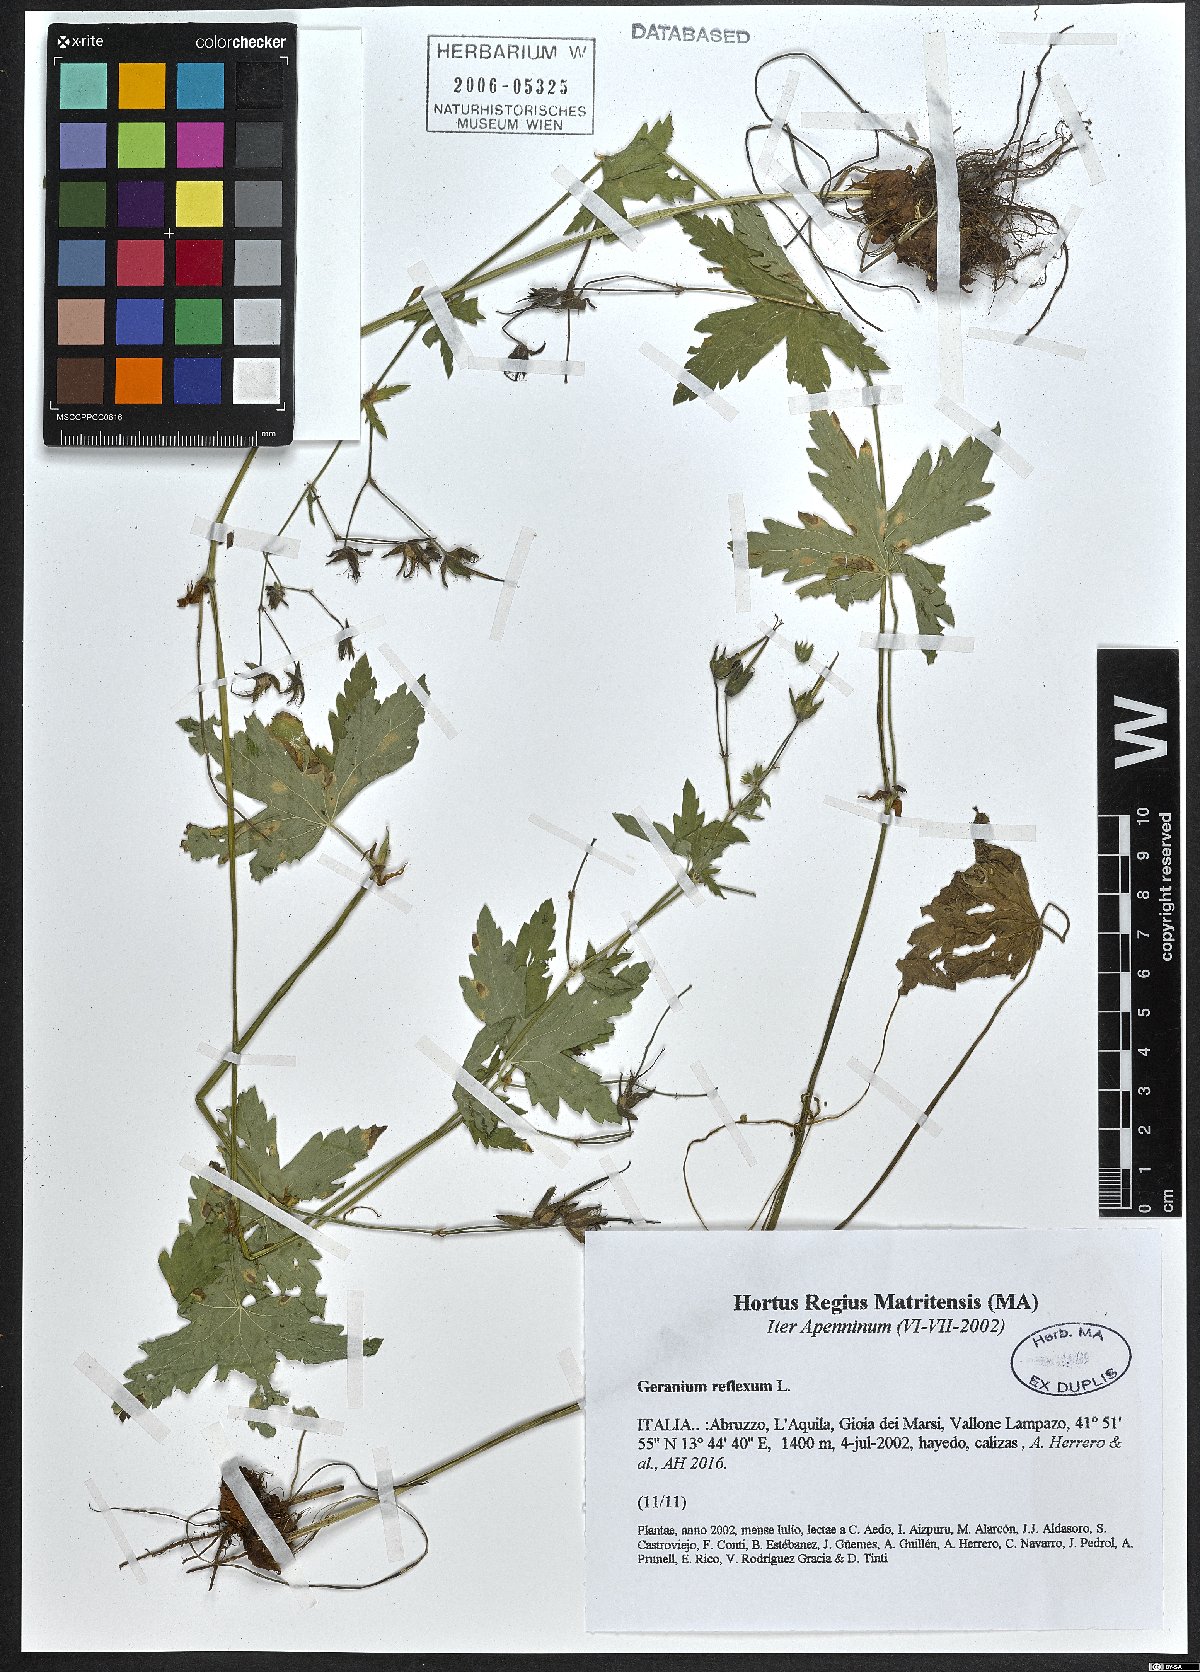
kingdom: Plantae
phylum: Tracheophyta
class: Magnoliopsida
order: Geraniales
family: Geraniaceae
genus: Geranium
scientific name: Geranium reflexum
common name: Reflexed crane's-bill
